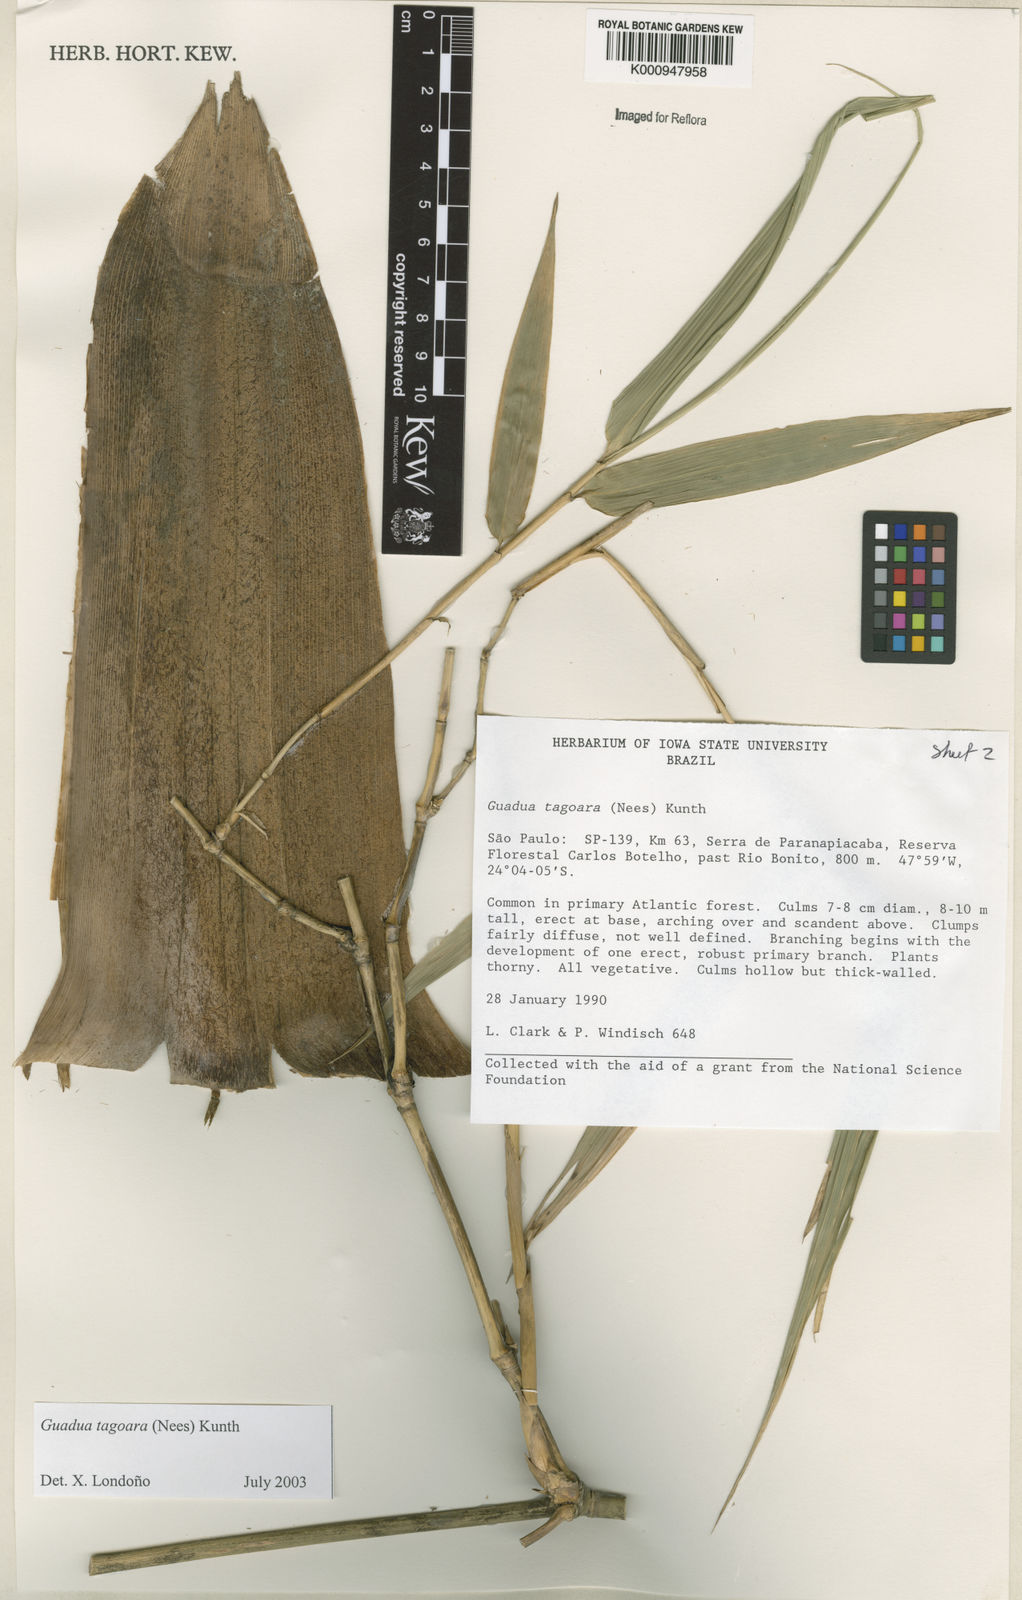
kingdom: Plantae
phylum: Tracheophyta
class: Liliopsida
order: Poales
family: Poaceae
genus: Guadua
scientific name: Guadua tagoara
